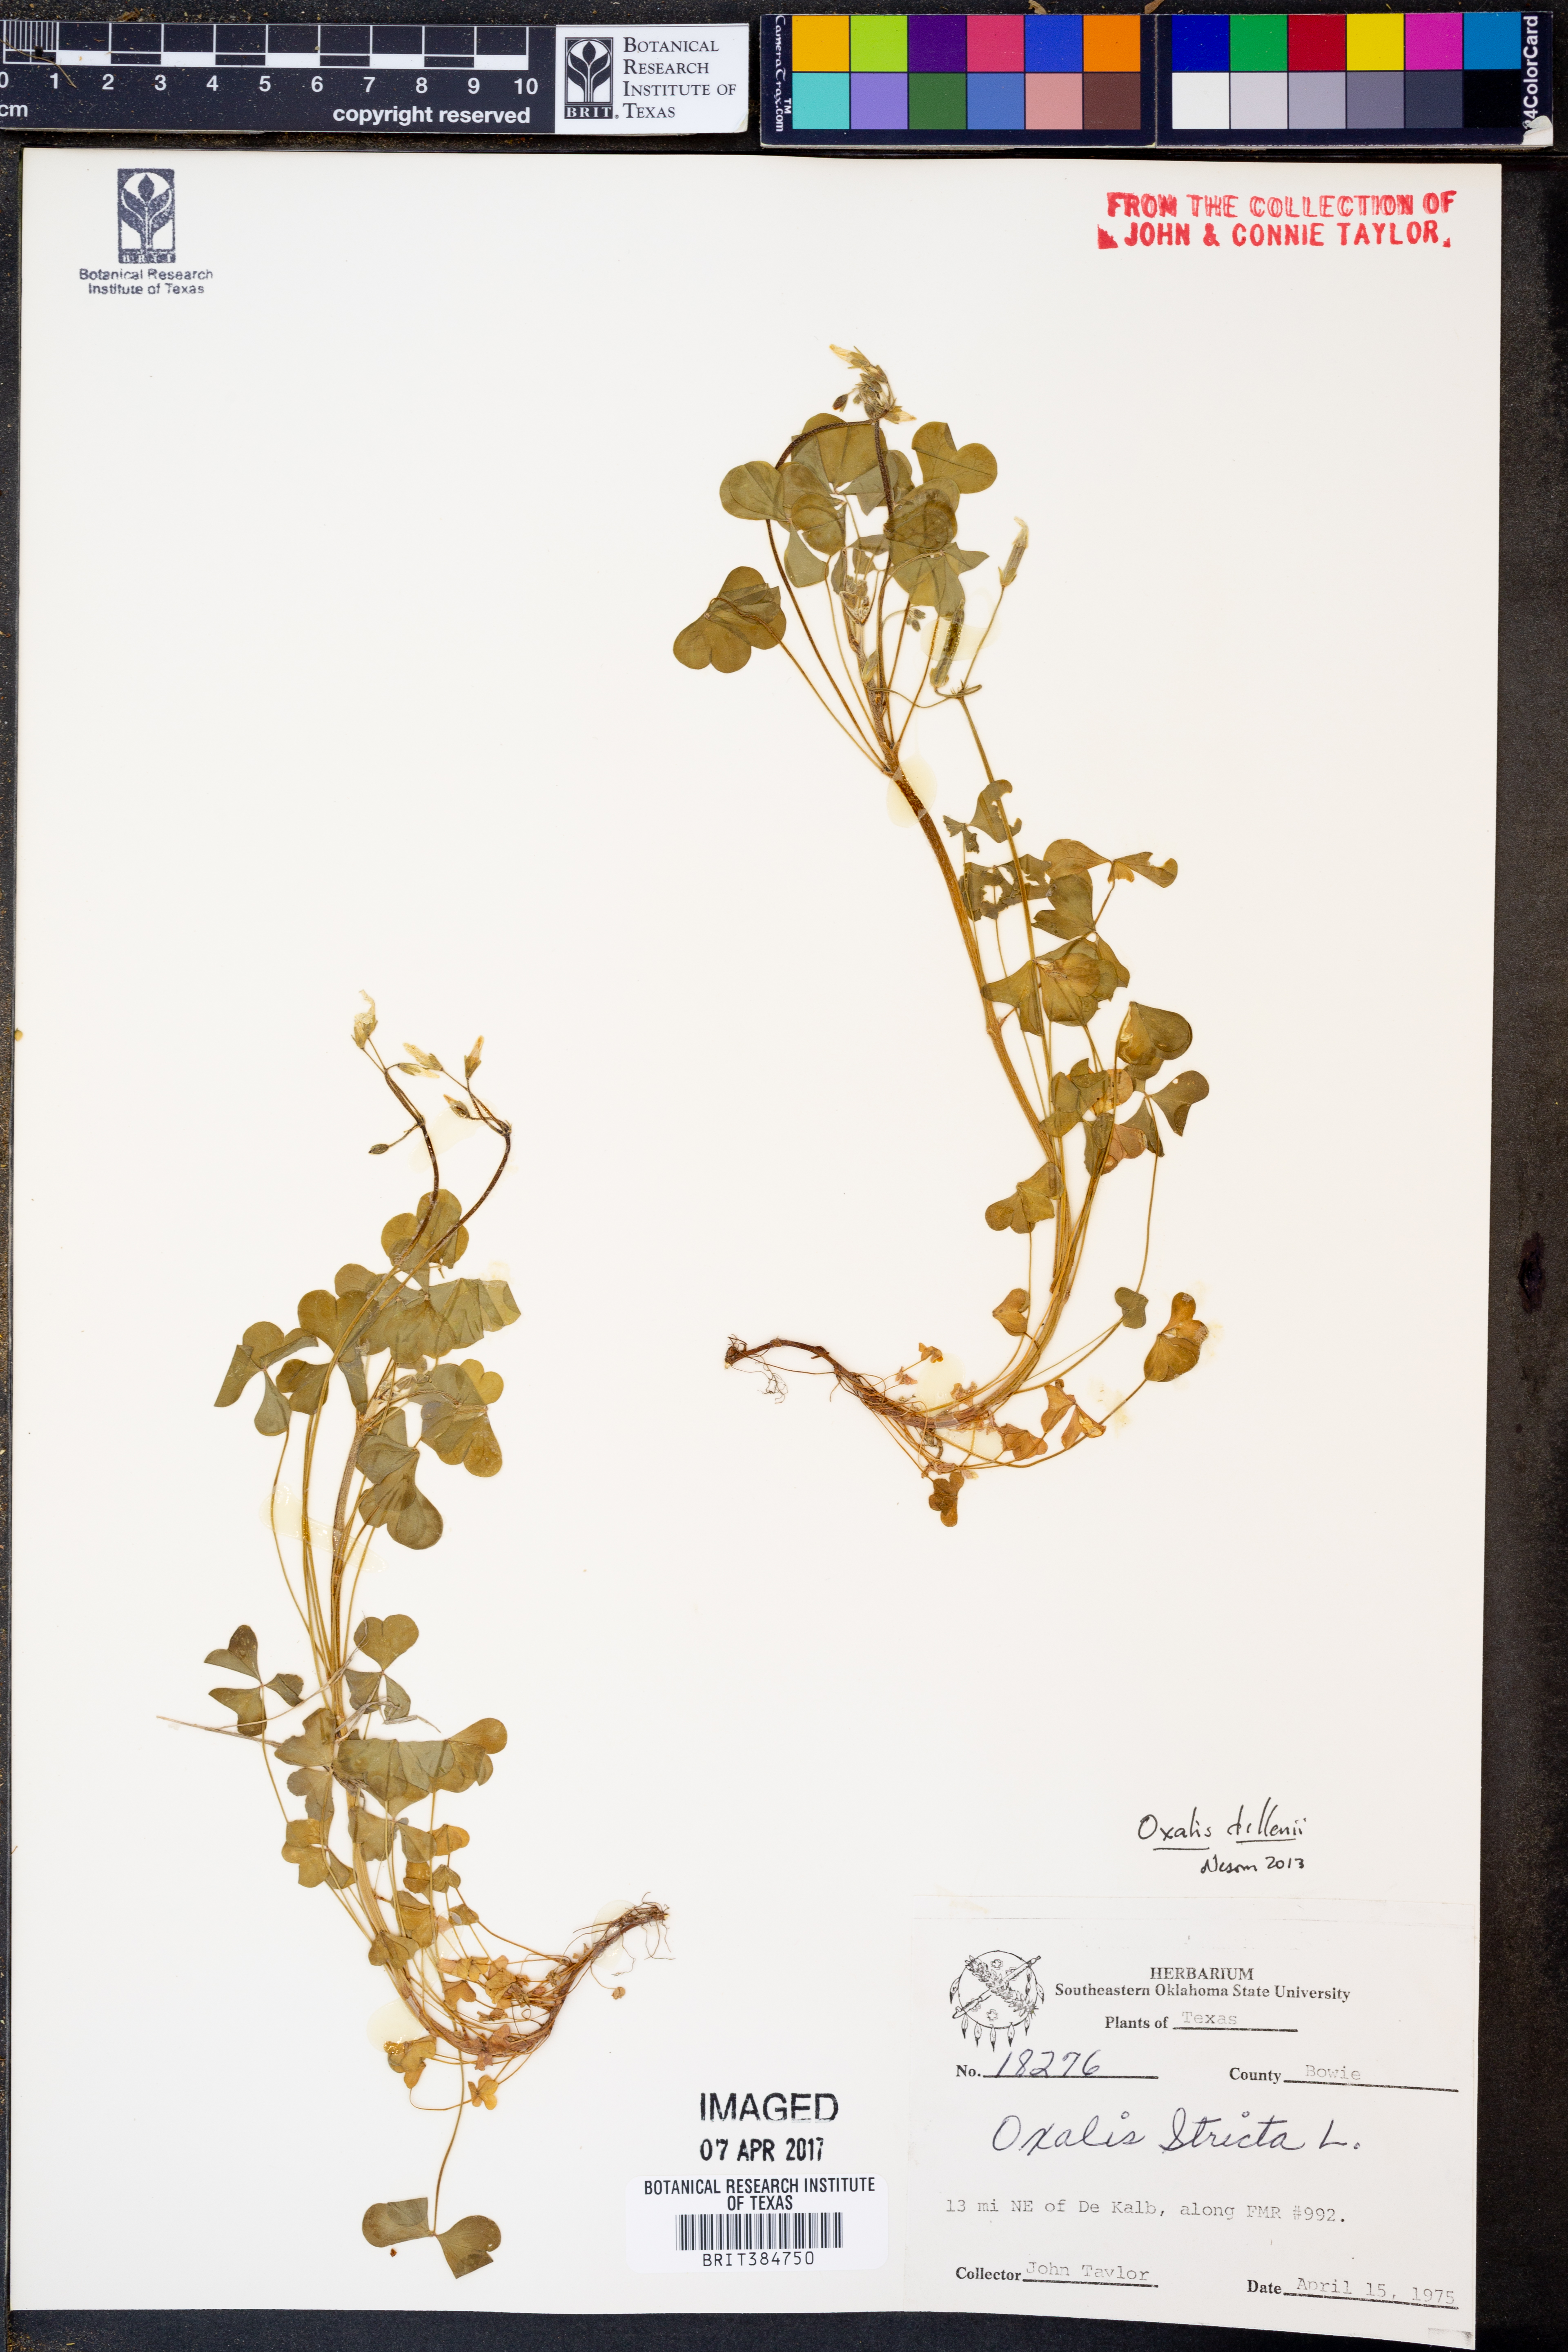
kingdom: Plantae
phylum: Tracheophyta
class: Magnoliopsida
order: Oxalidales
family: Oxalidaceae
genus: Oxalis
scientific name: Oxalis dillenii
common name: Sussex yellow-sorrel
